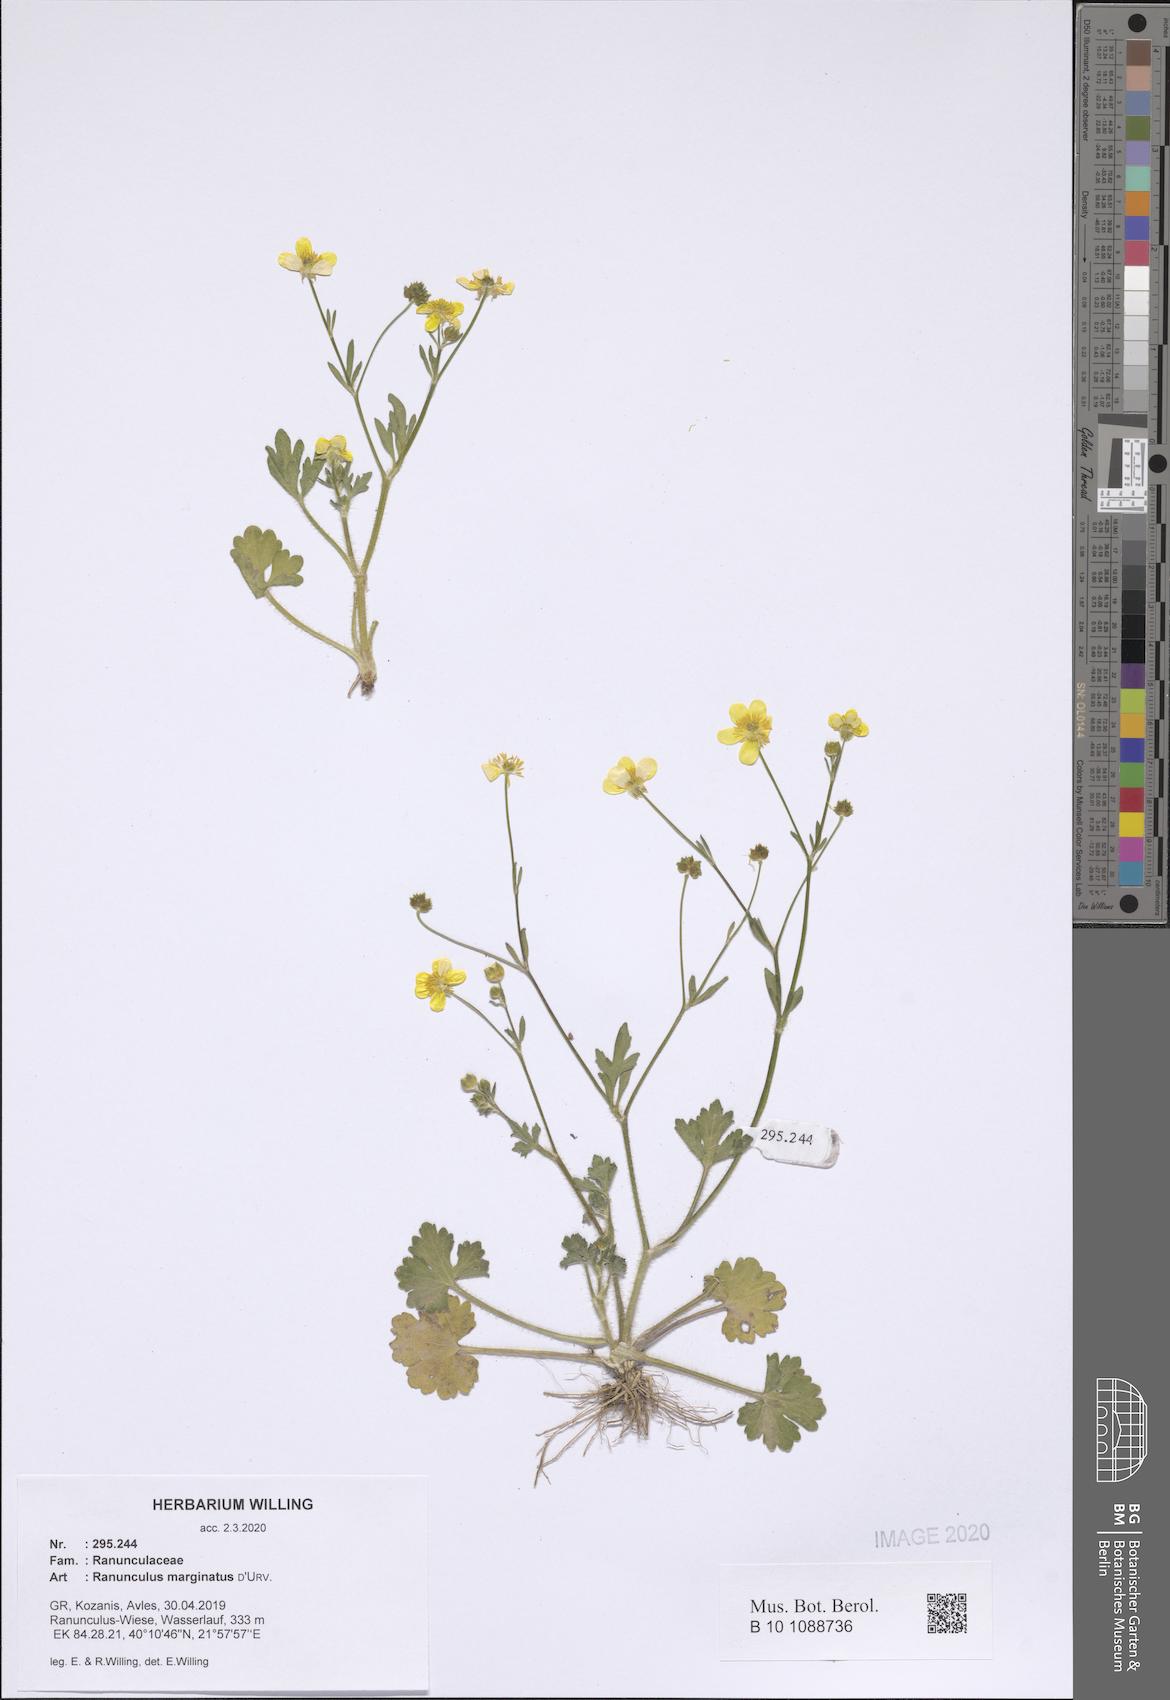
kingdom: Plantae
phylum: Tracheophyta
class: Magnoliopsida
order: Ranunculales
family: Ranunculaceae
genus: Ranunculus
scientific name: Ranunculus marginatus
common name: St. martin's buttercup
